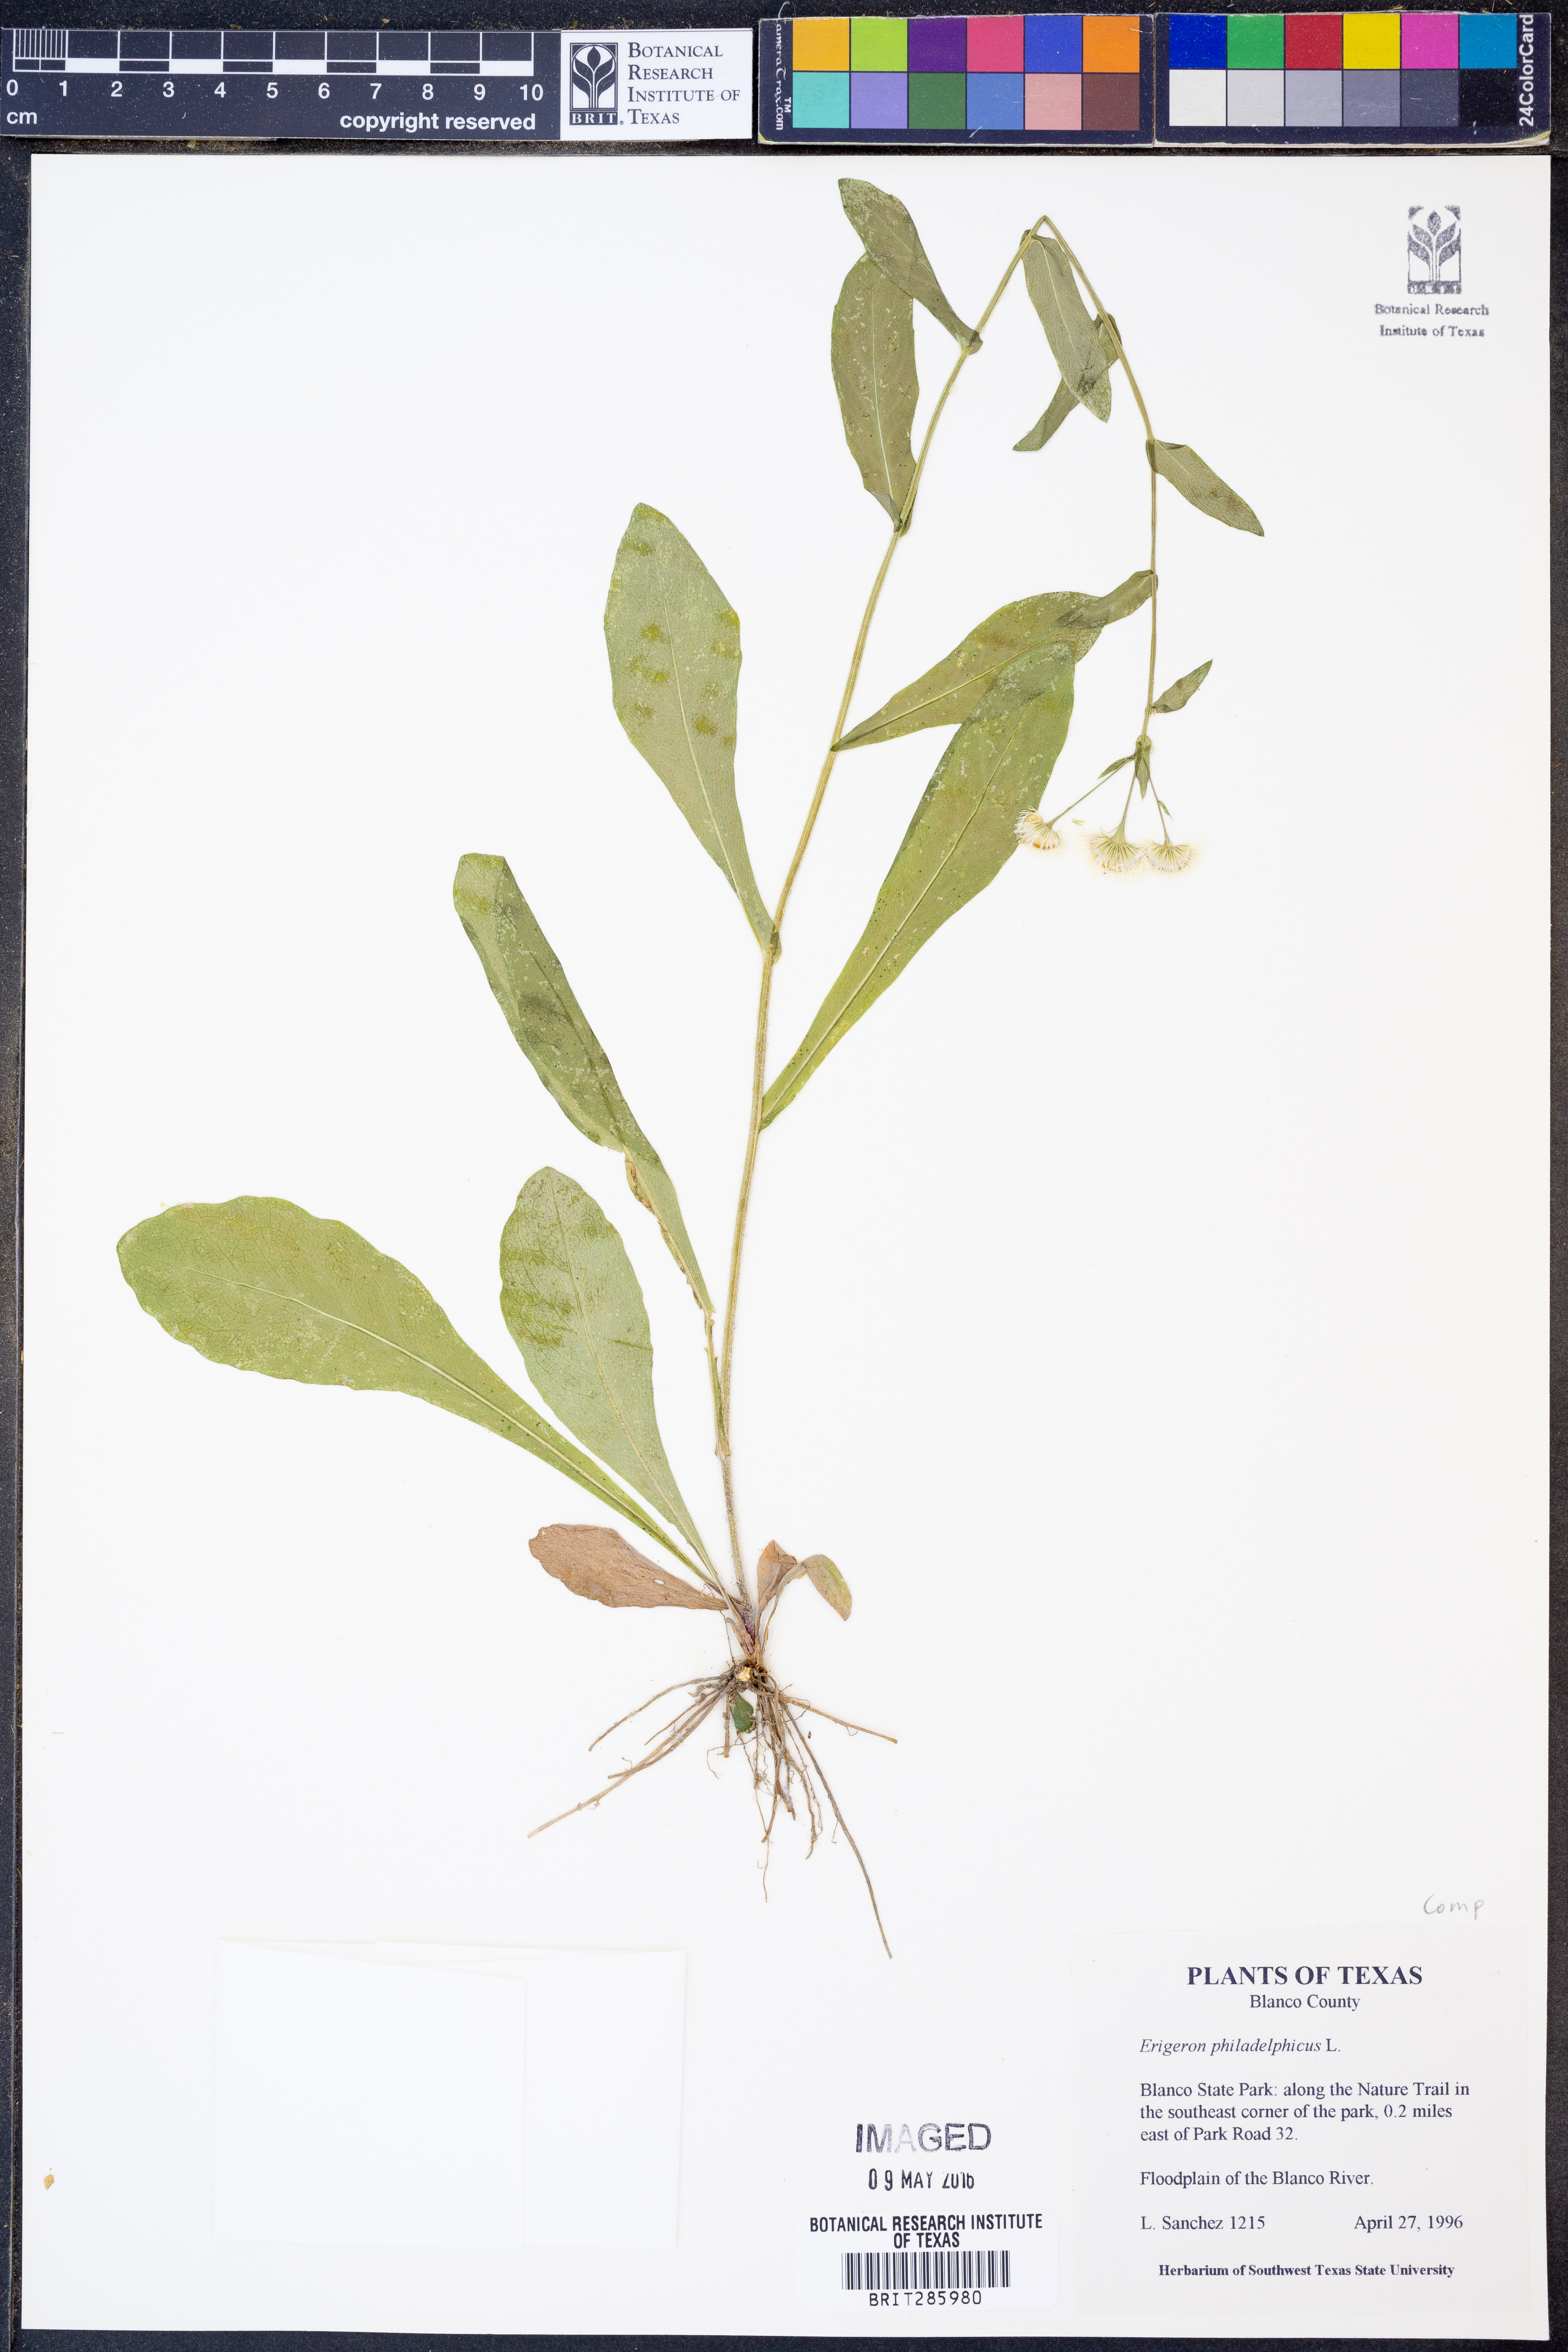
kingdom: Plantae
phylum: Tracheophyta
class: Magnoliopsida
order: Asterales
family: Asteraceae
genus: Erigeron
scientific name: Erigeron philadelphicus
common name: Robin's-plantain
